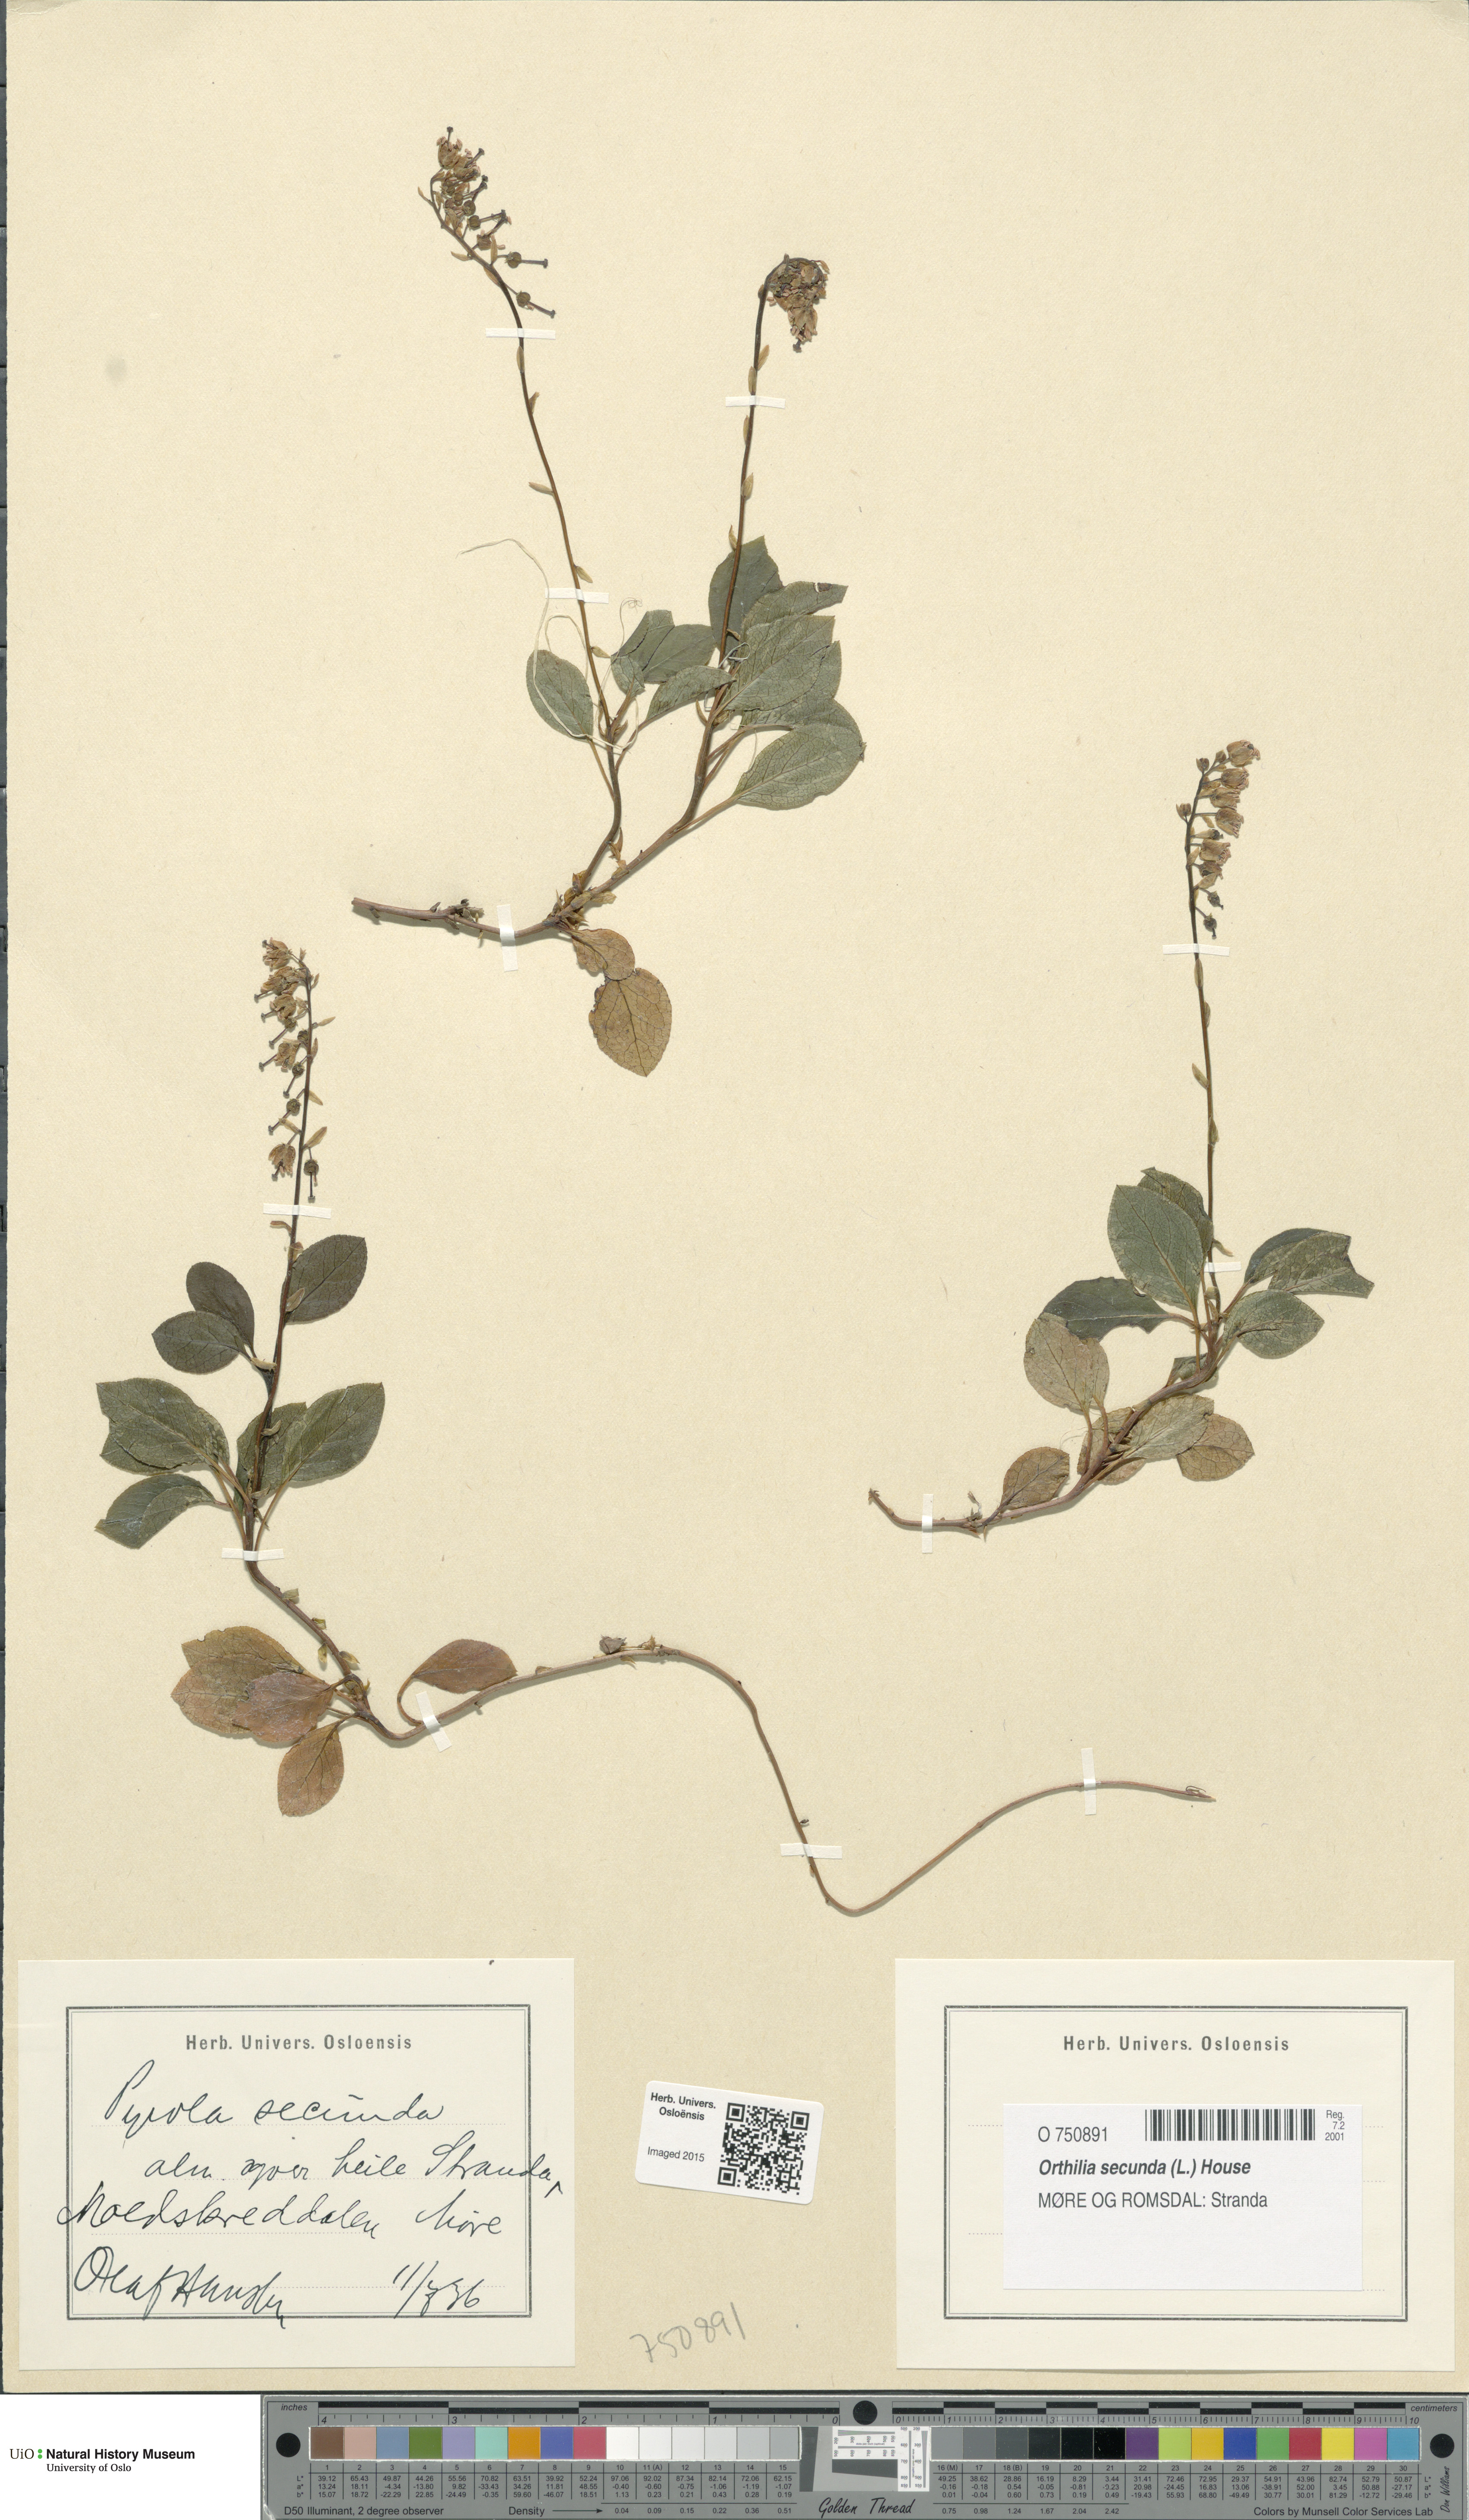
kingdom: Plantae
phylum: Tracheophyta
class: Magnoliopsida
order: Ericales
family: Ericaceae
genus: Orthilia
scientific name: Orthilia secunda
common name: One-sided orthilia
